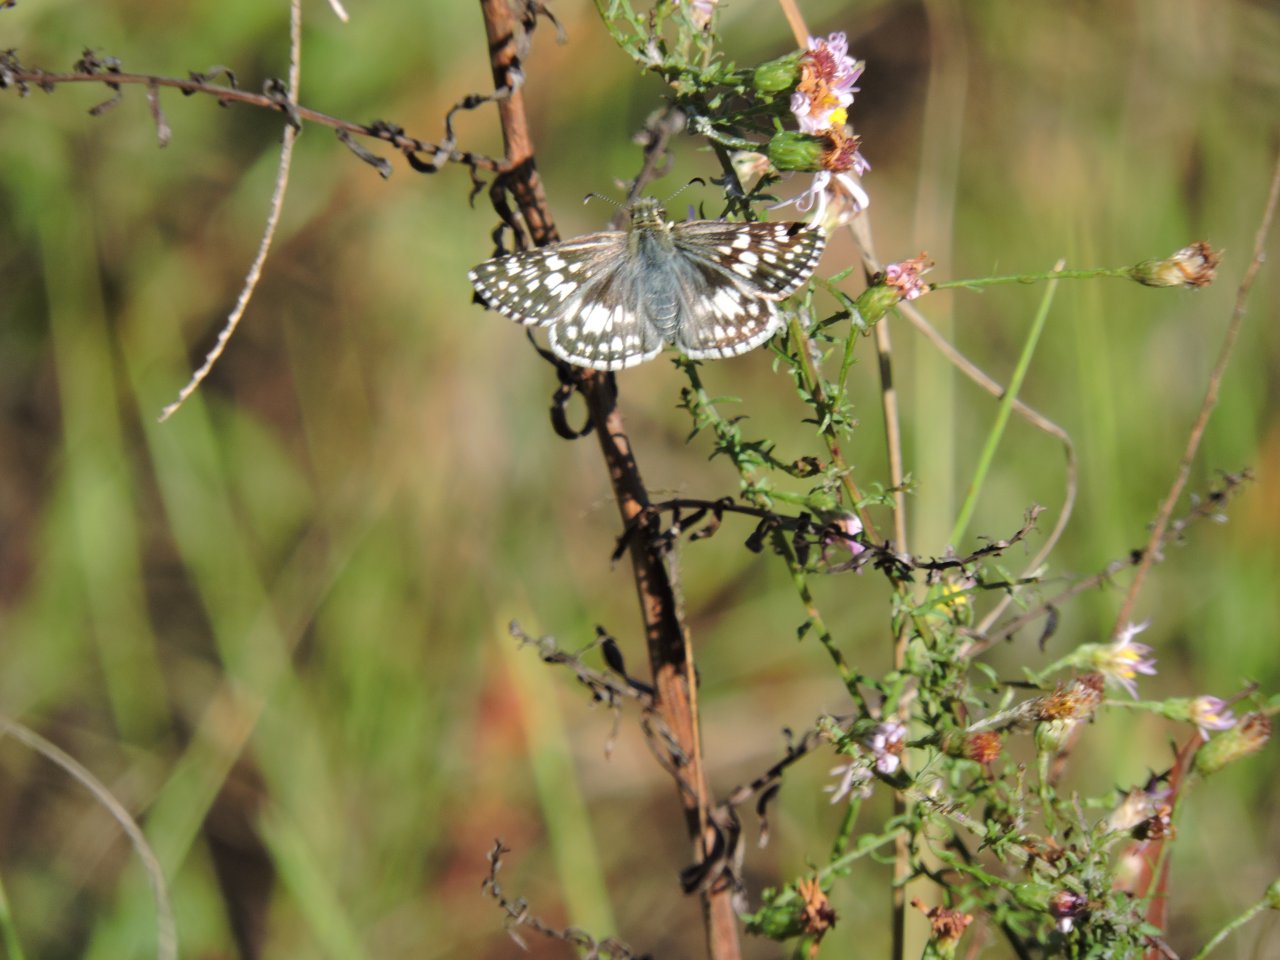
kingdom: Animalia
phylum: Arthropoda
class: Insecta
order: Lepidoptera
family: Hesperiidae
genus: Pyrgus
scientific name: Pyrgus
